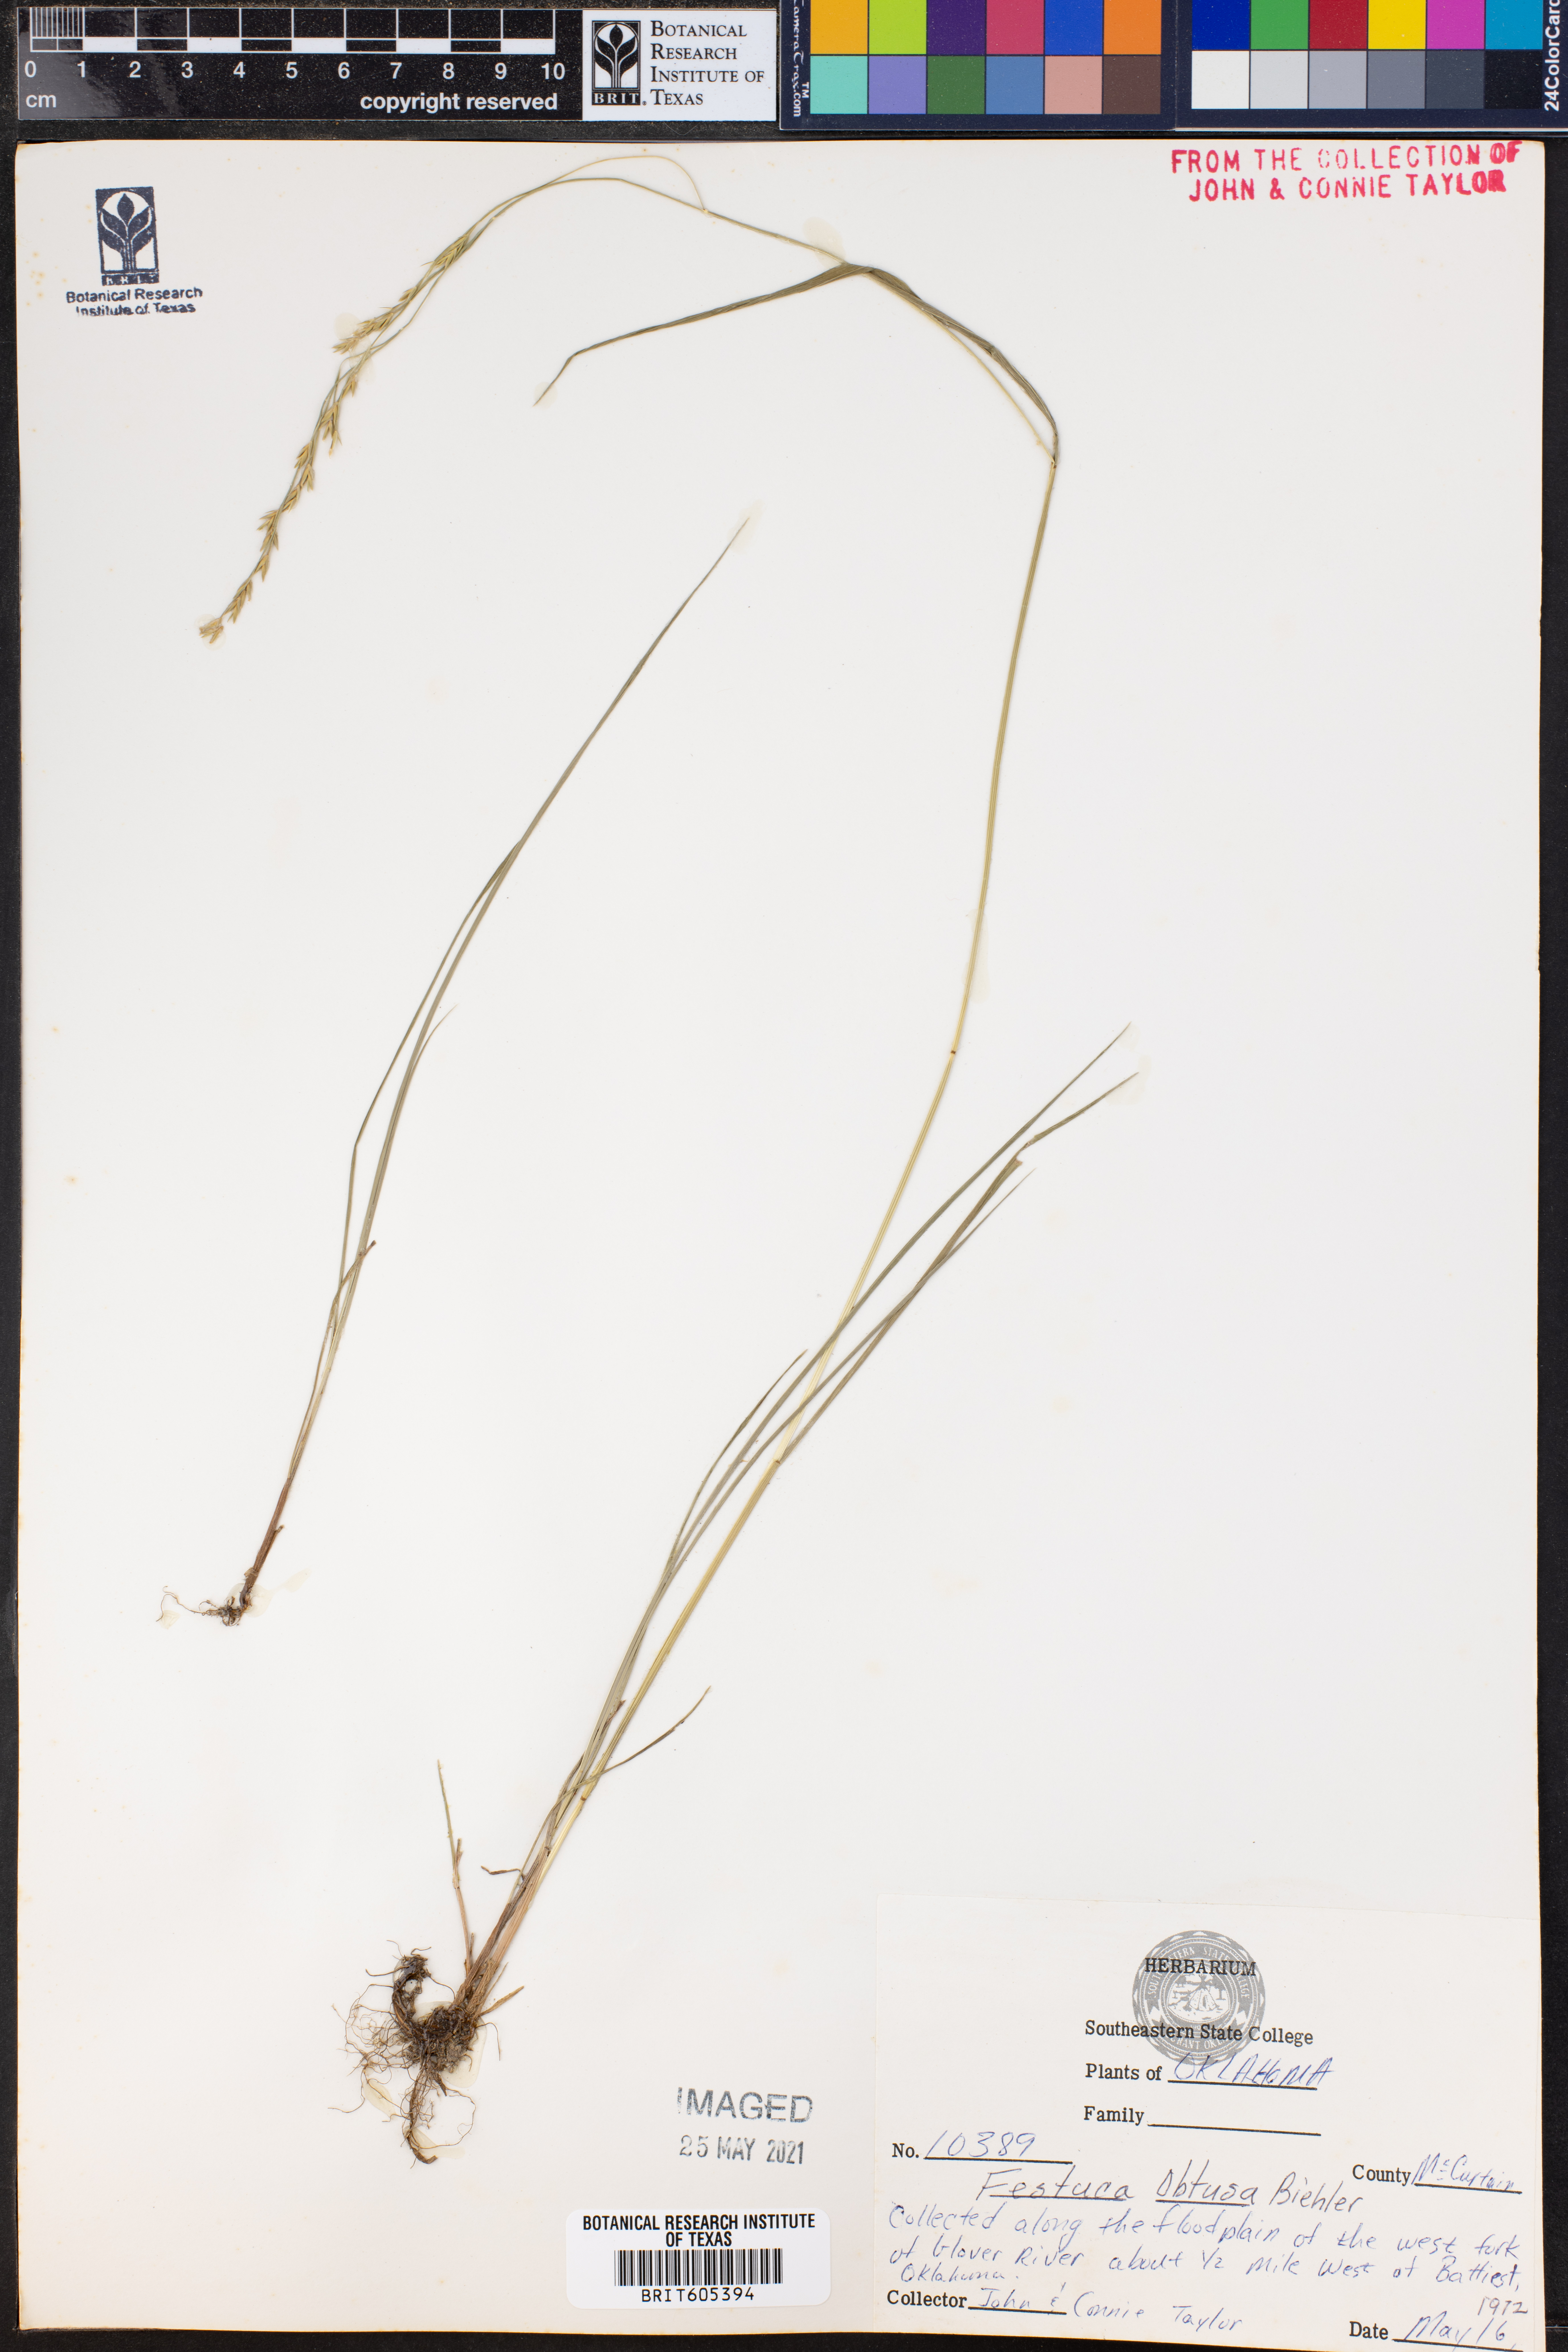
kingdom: Plantae
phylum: Tracheophyta
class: Liliopsida
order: Poales
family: Poaceae
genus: Festuca
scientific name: Festuca subverticillata
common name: Nodding fescue
